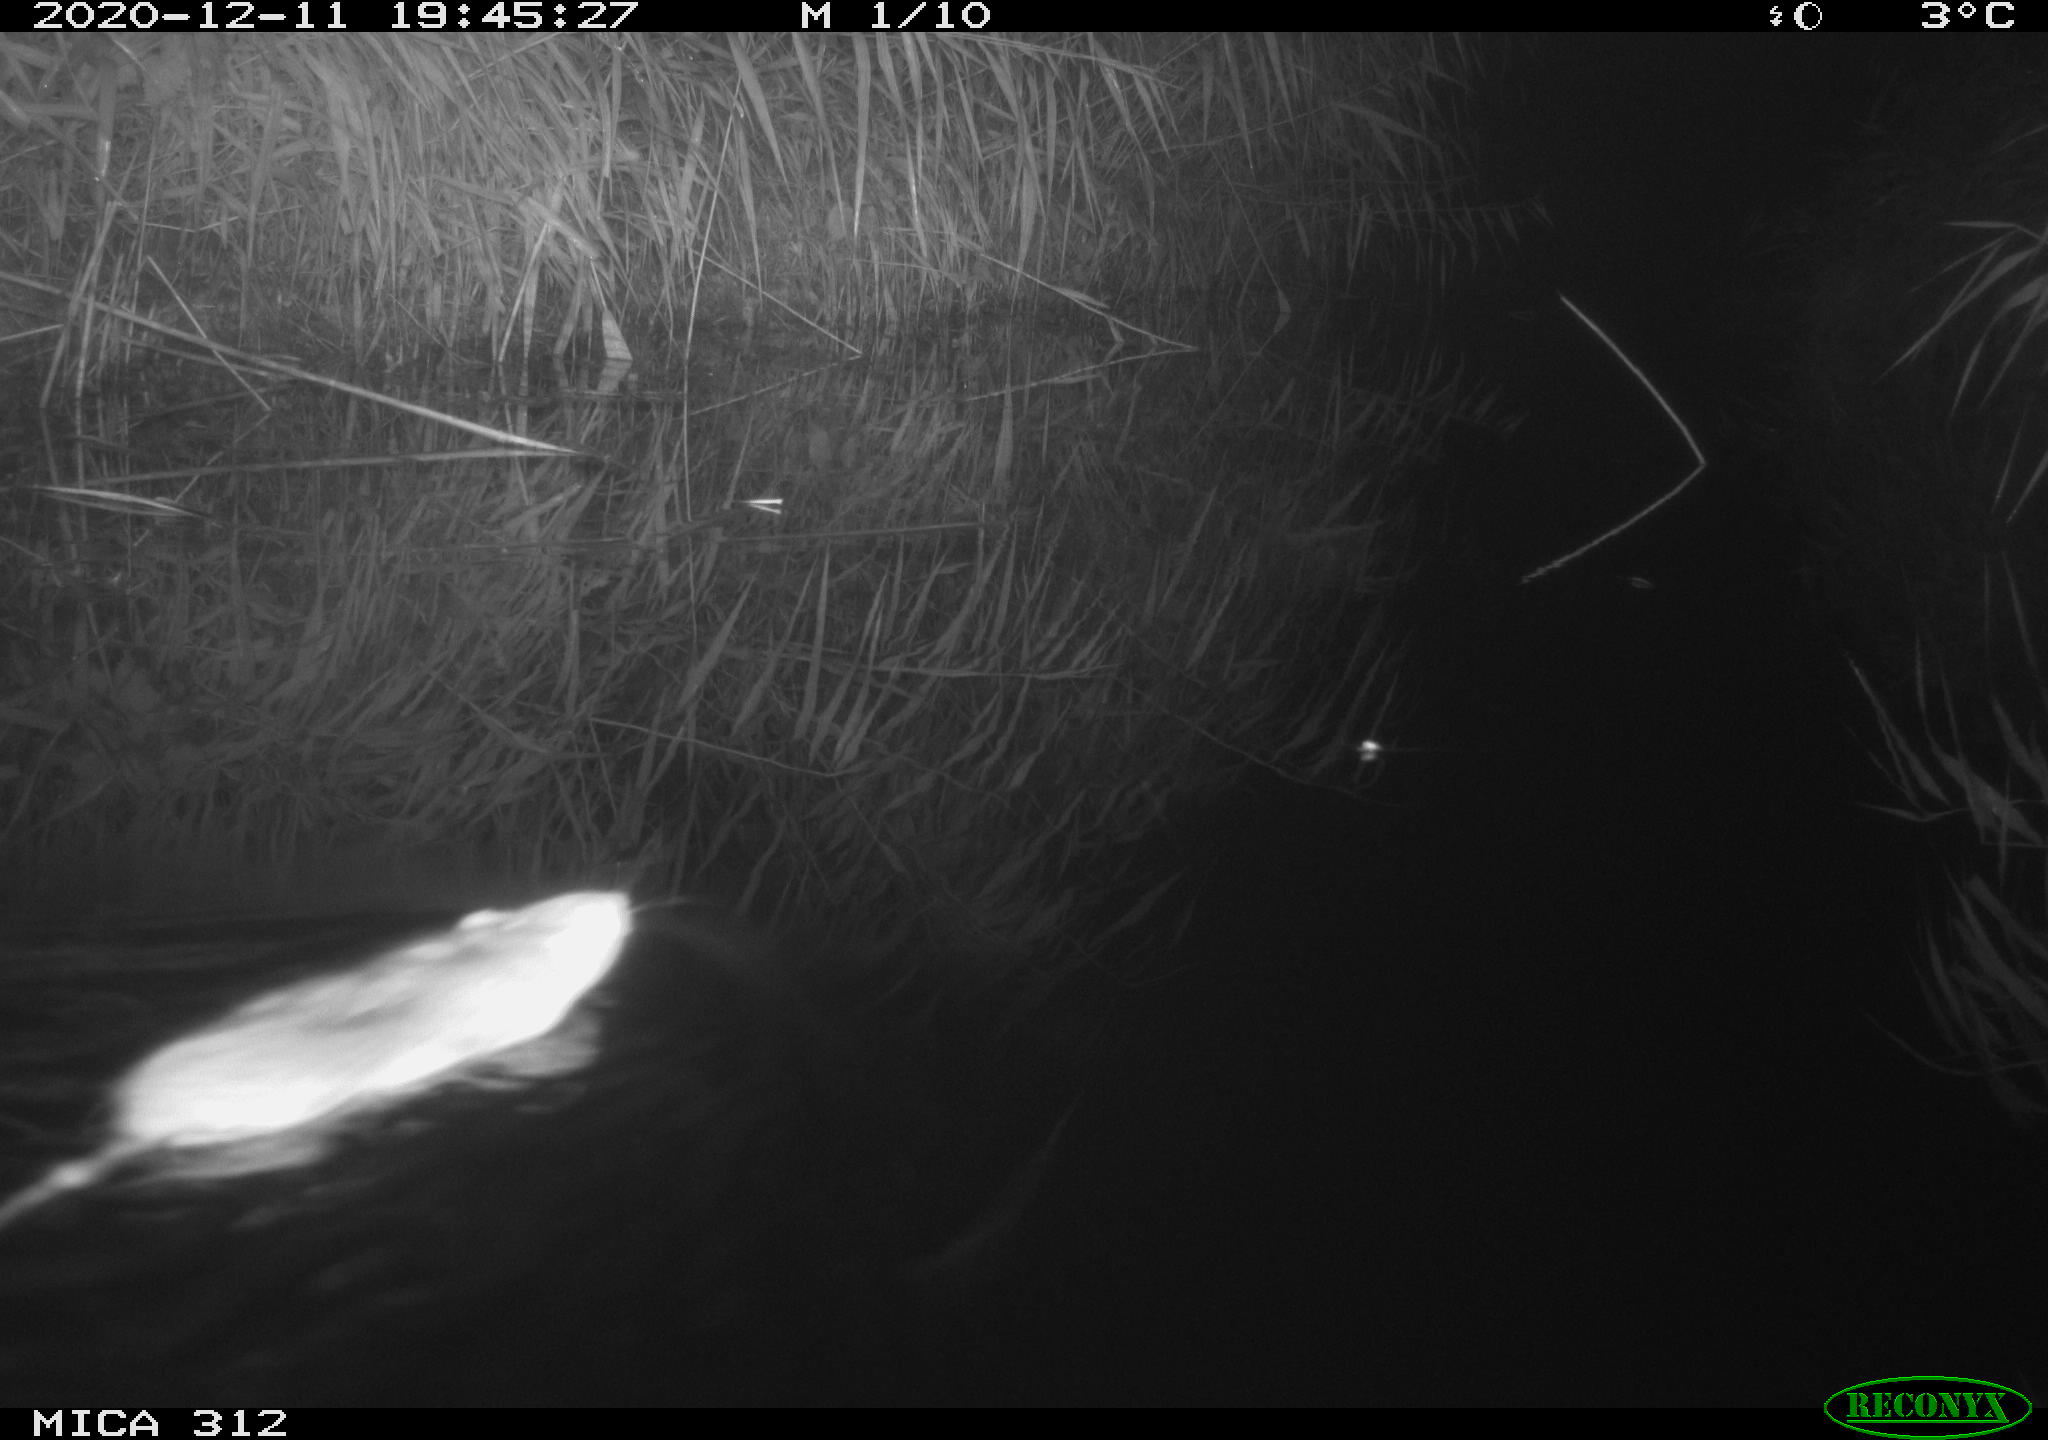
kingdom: Animalia
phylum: Chordata
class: Mammalia
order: Rodentia
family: Muridae
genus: Rattus
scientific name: Rattus norvegicus
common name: Brown rat
